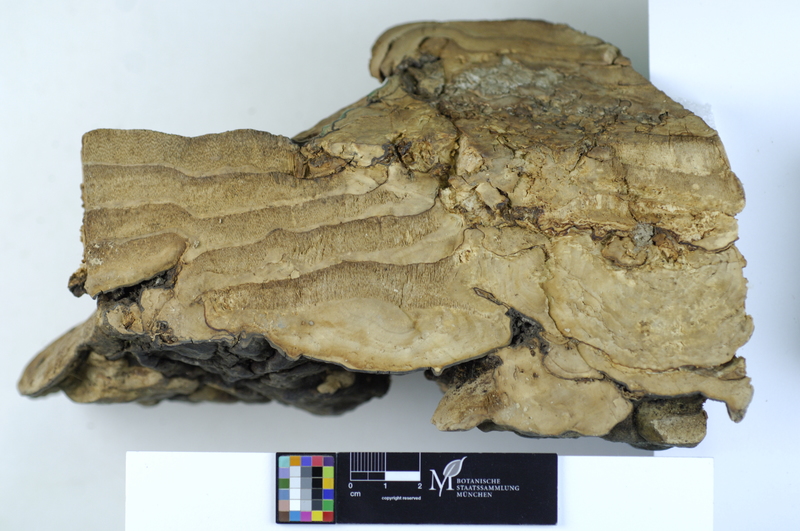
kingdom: Fungi
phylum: Basidiomycota
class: Agaricomycetes
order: Polyporales
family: Polyporaceae
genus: Vanderbylia
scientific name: Vanderbylia fraxinea
